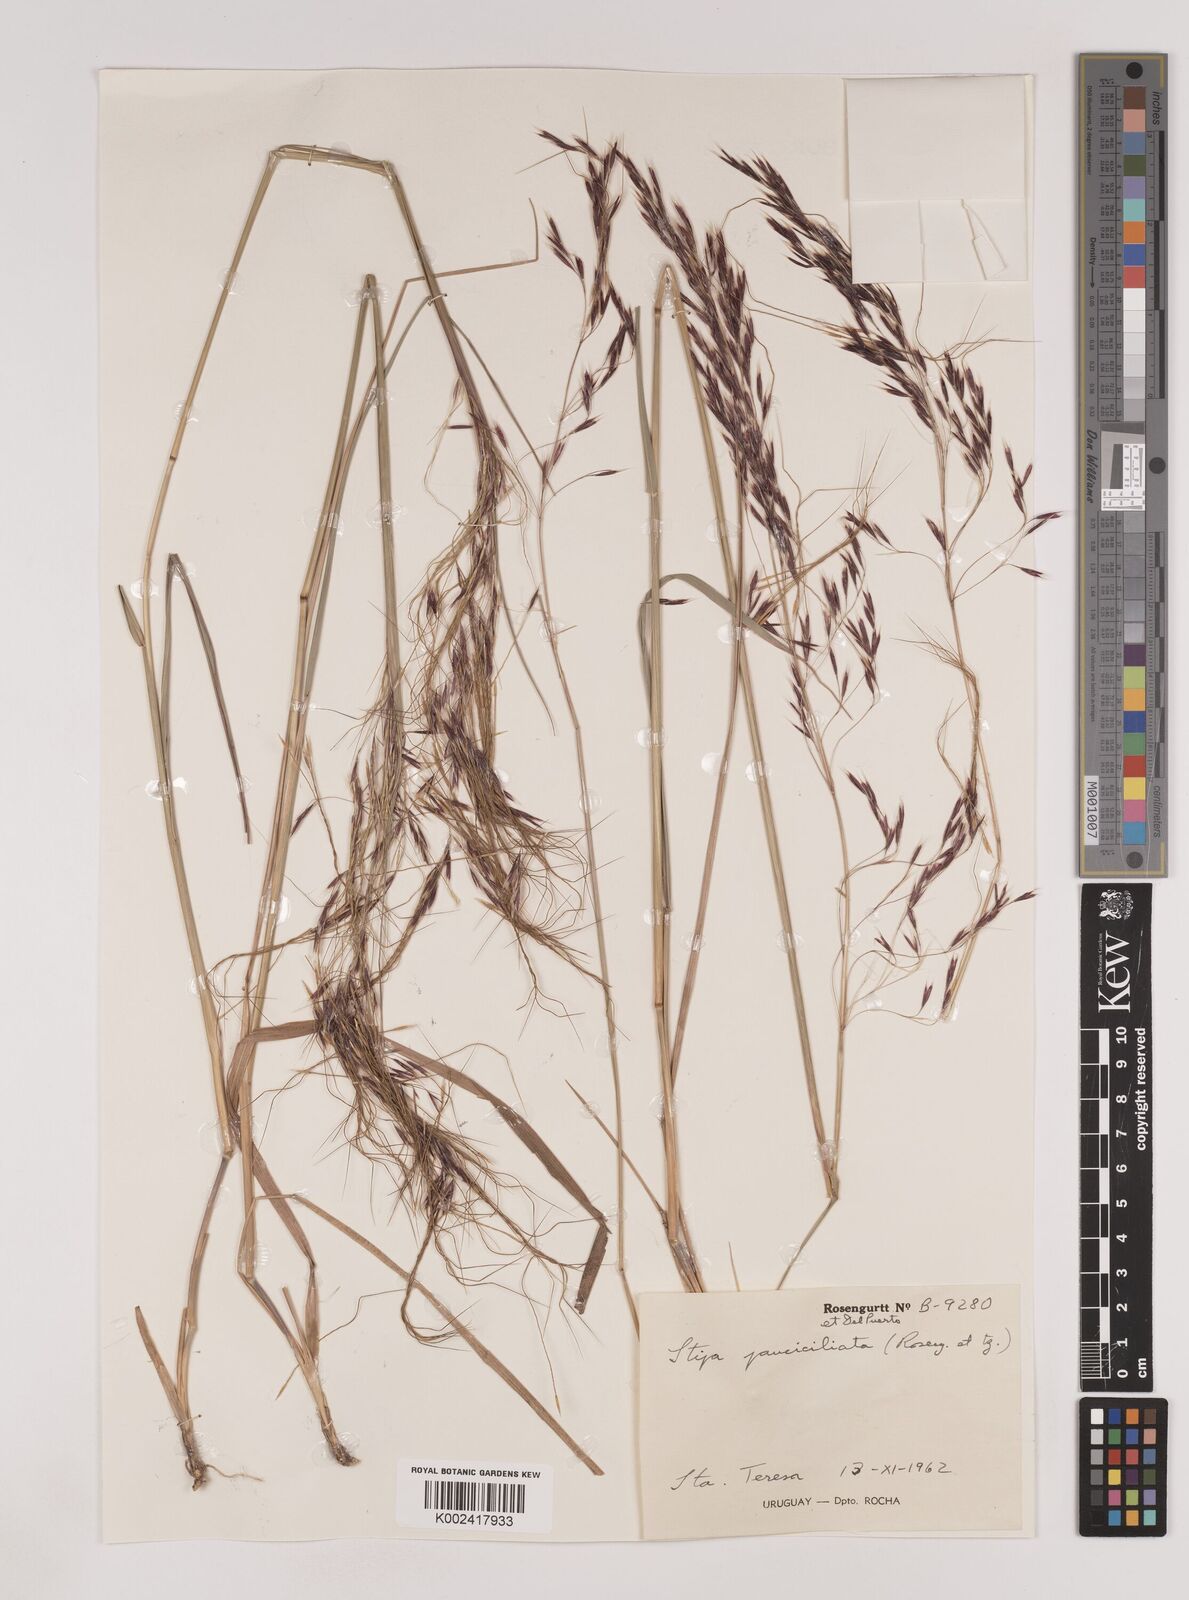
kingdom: Plantae
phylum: Tracheophyta
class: Liliopsida
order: Poales
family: Poaceae
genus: Nassella
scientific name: Nassella pauciciliata
